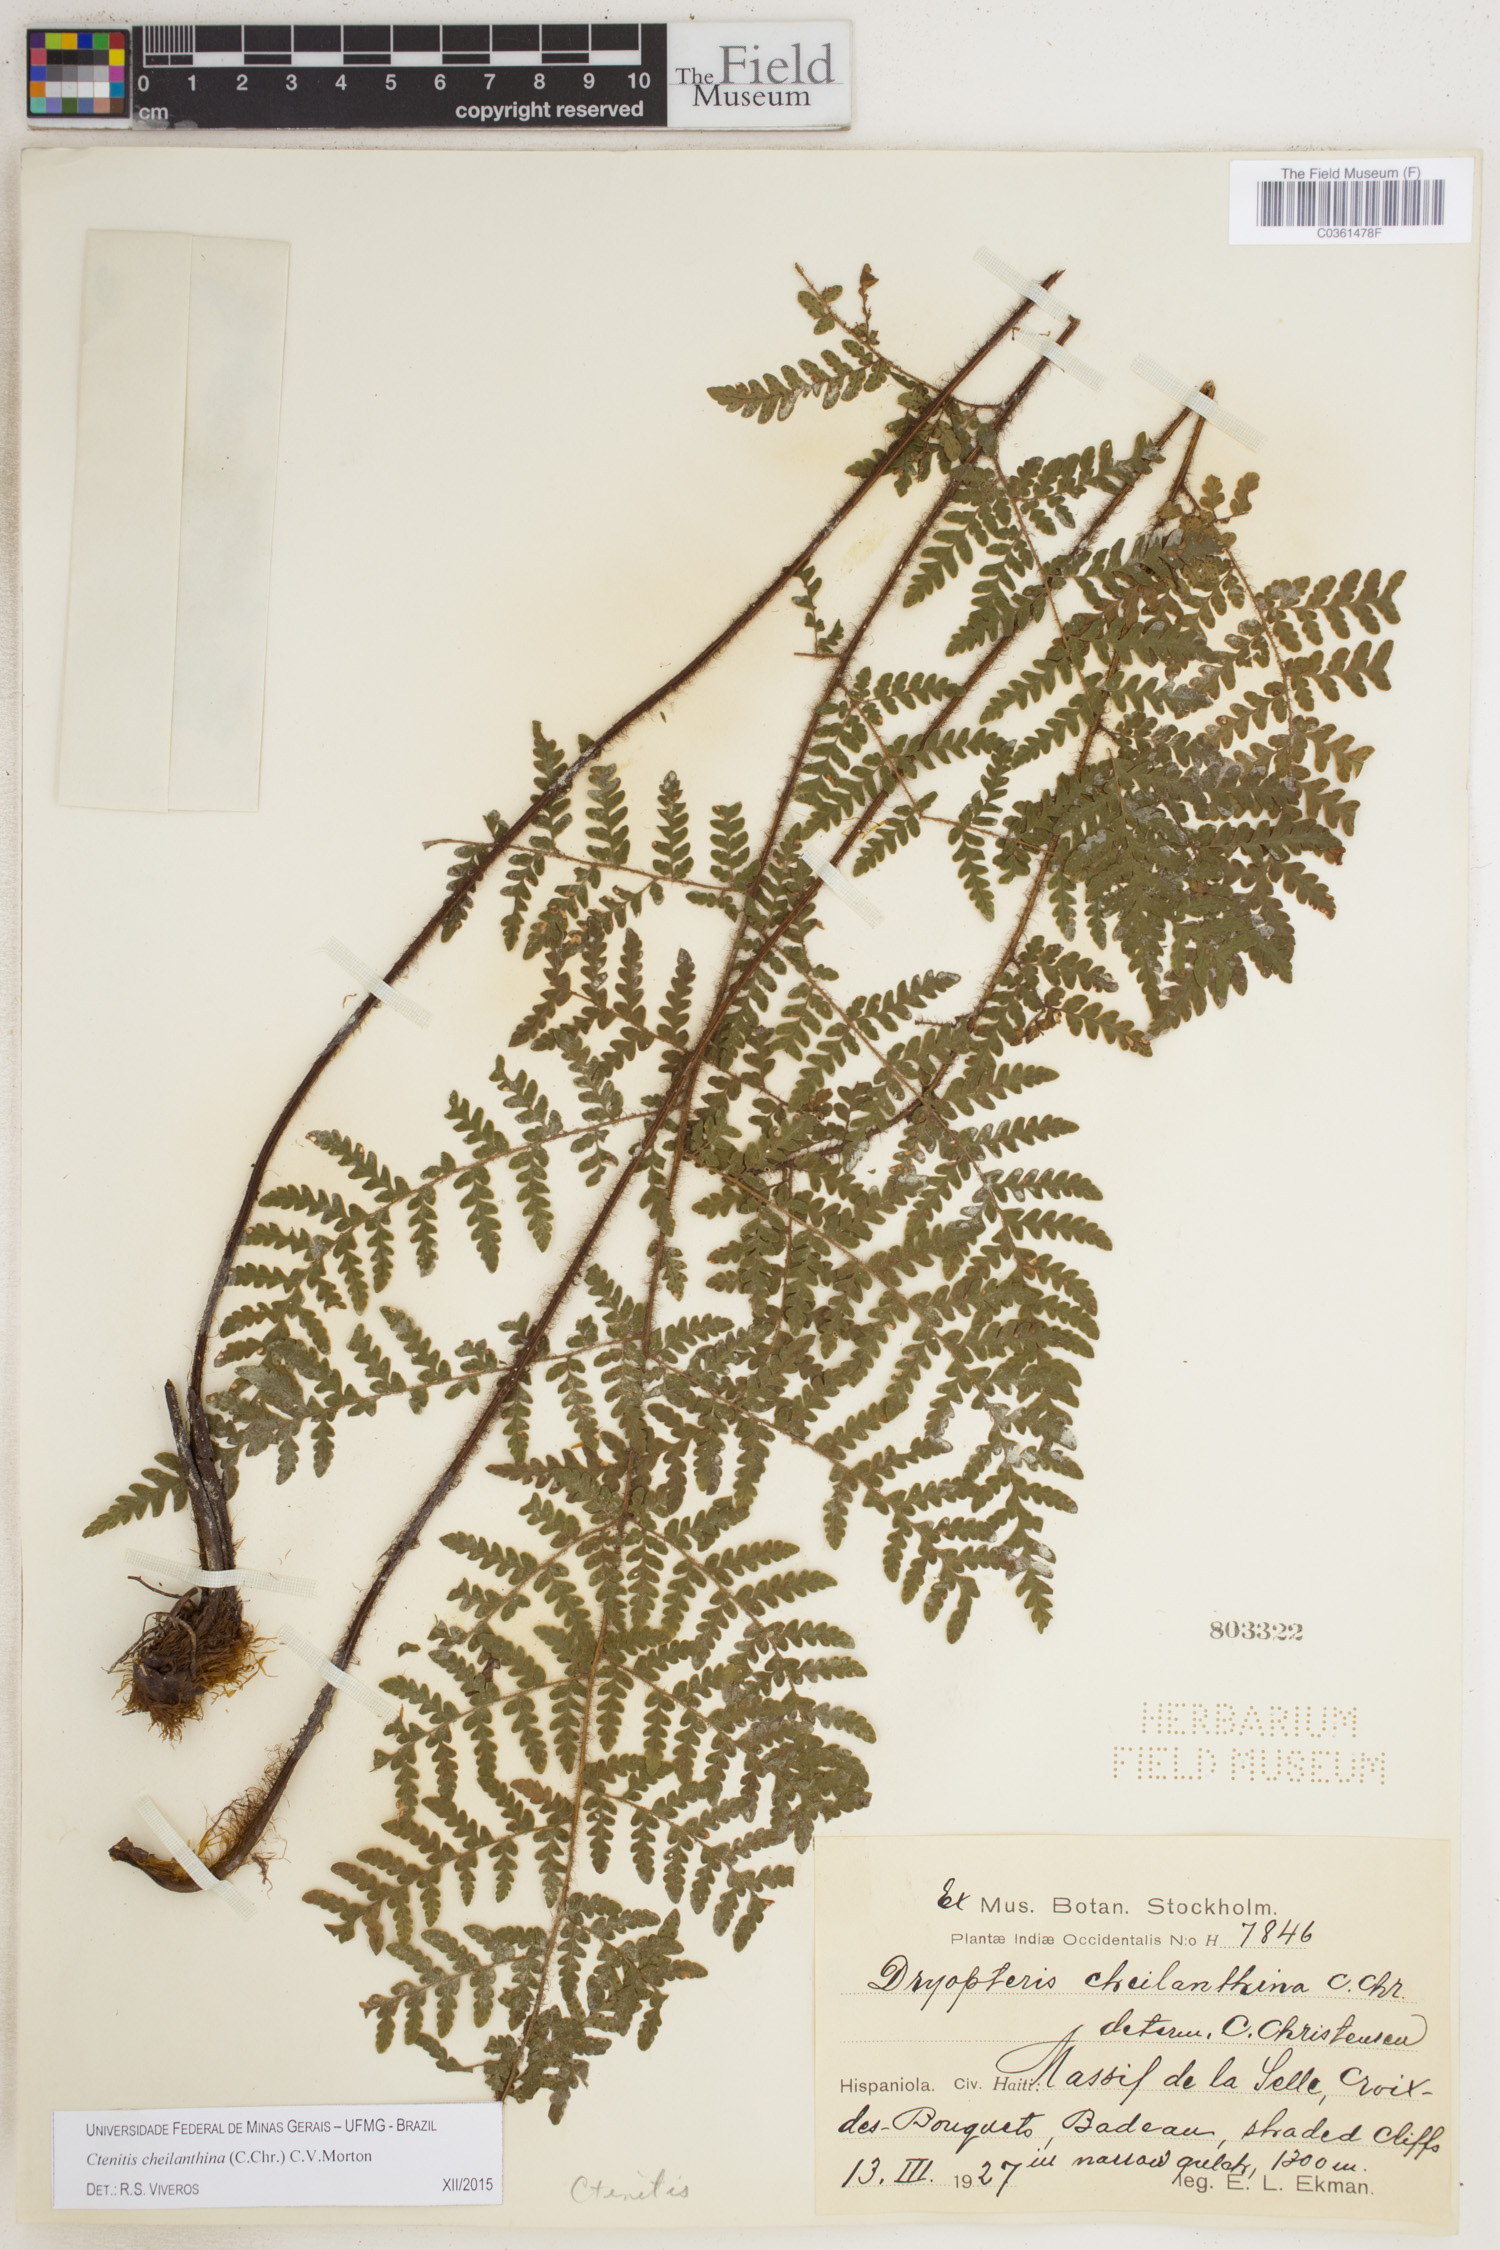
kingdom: Plantae
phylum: Tracheophyta
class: Polypodiopsida
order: Polypodiales
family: Dryopteridaceae
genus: Ctenitis
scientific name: Ctenitis cheilanthina
